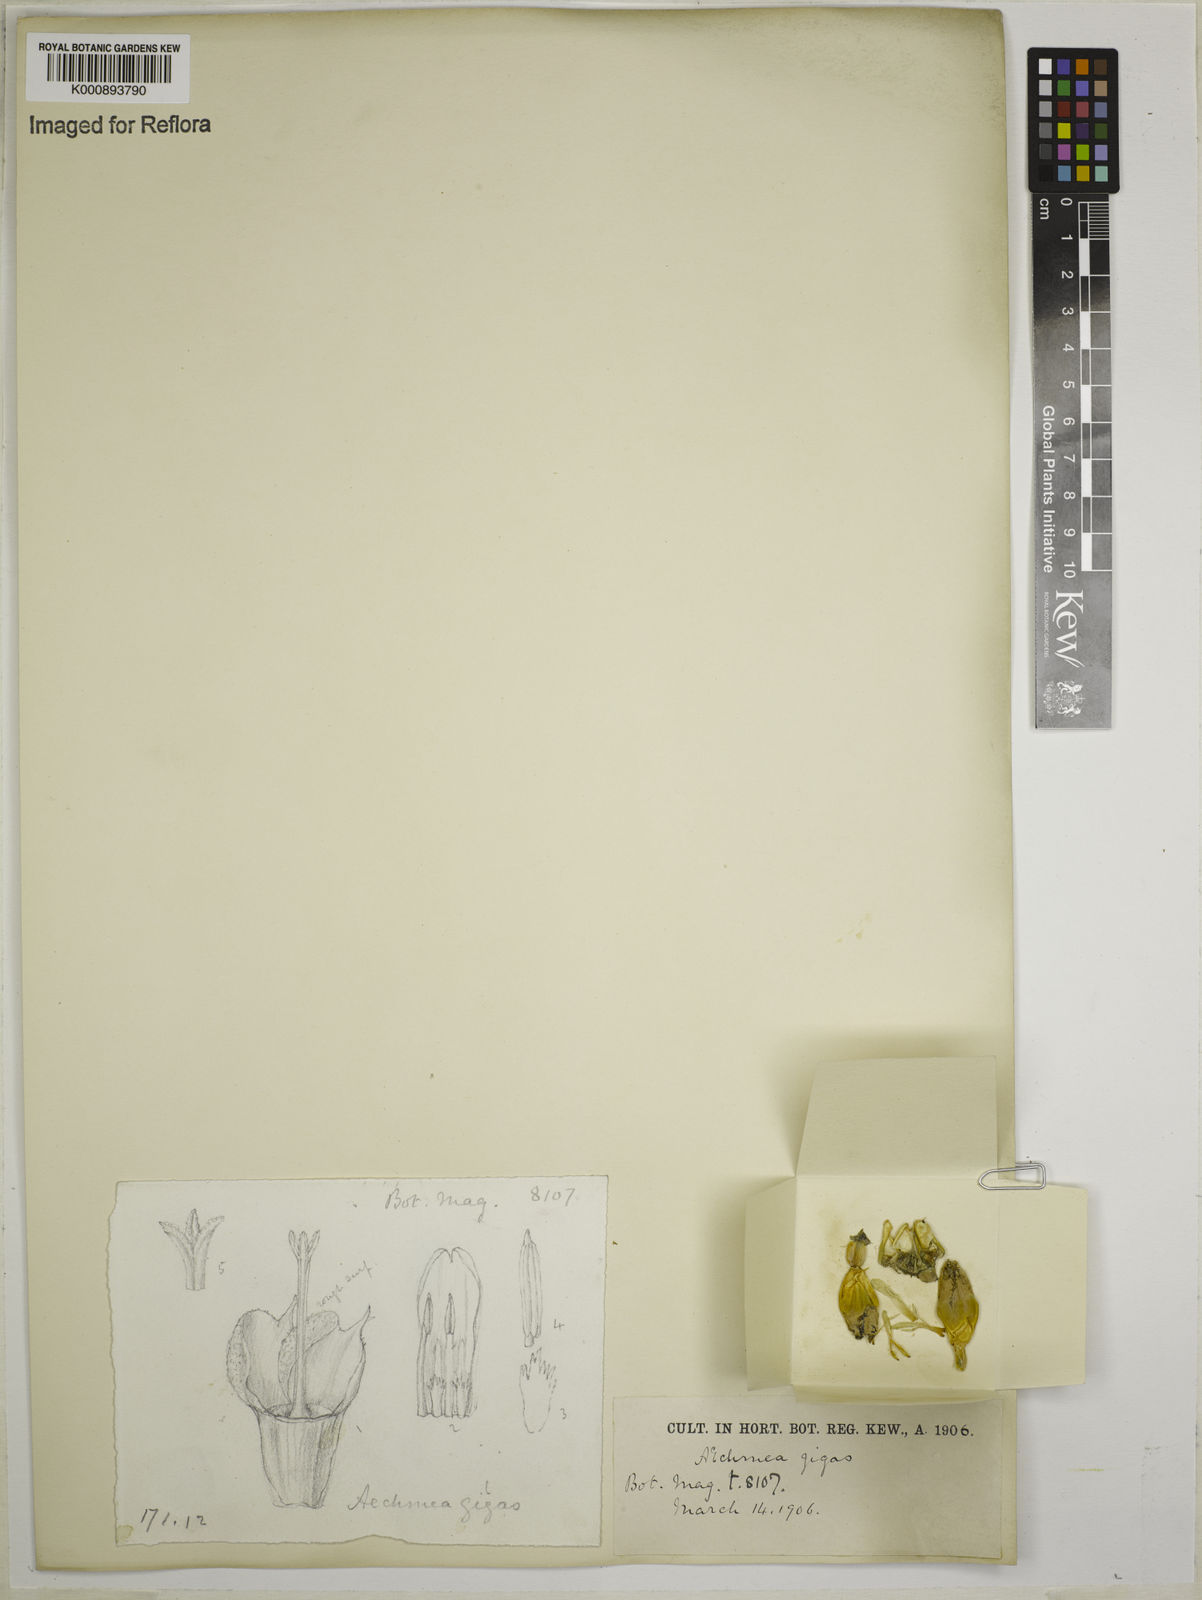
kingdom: Plantae
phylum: Tracheophyta
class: Liliopsida
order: Poales
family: Bromeliaceae
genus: Ronnbergia
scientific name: Ronnbergia tonduzii
